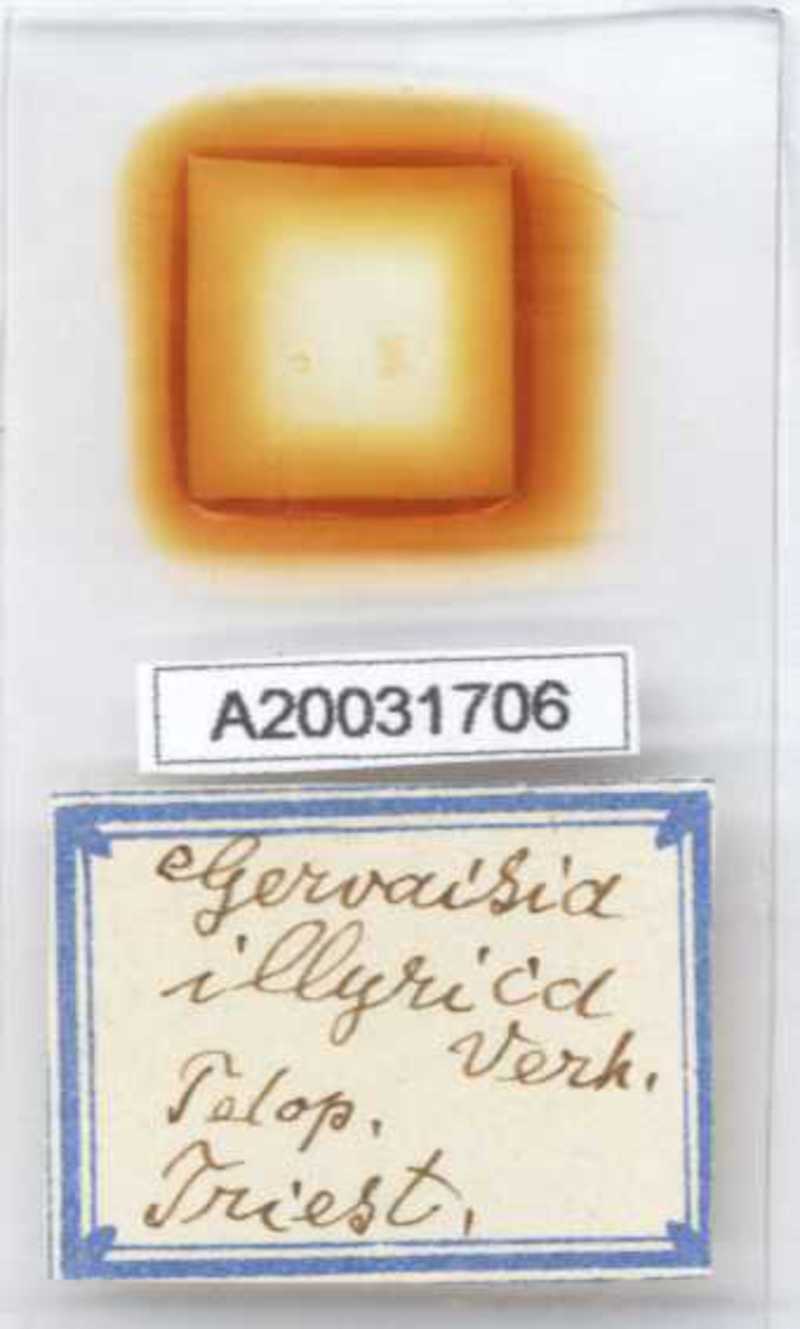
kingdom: Animalia
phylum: Arthropoda
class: Diplopoda
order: Glomerida
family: Glomeridae
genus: Trachysphaera
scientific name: Trachysphaera schmidtii
